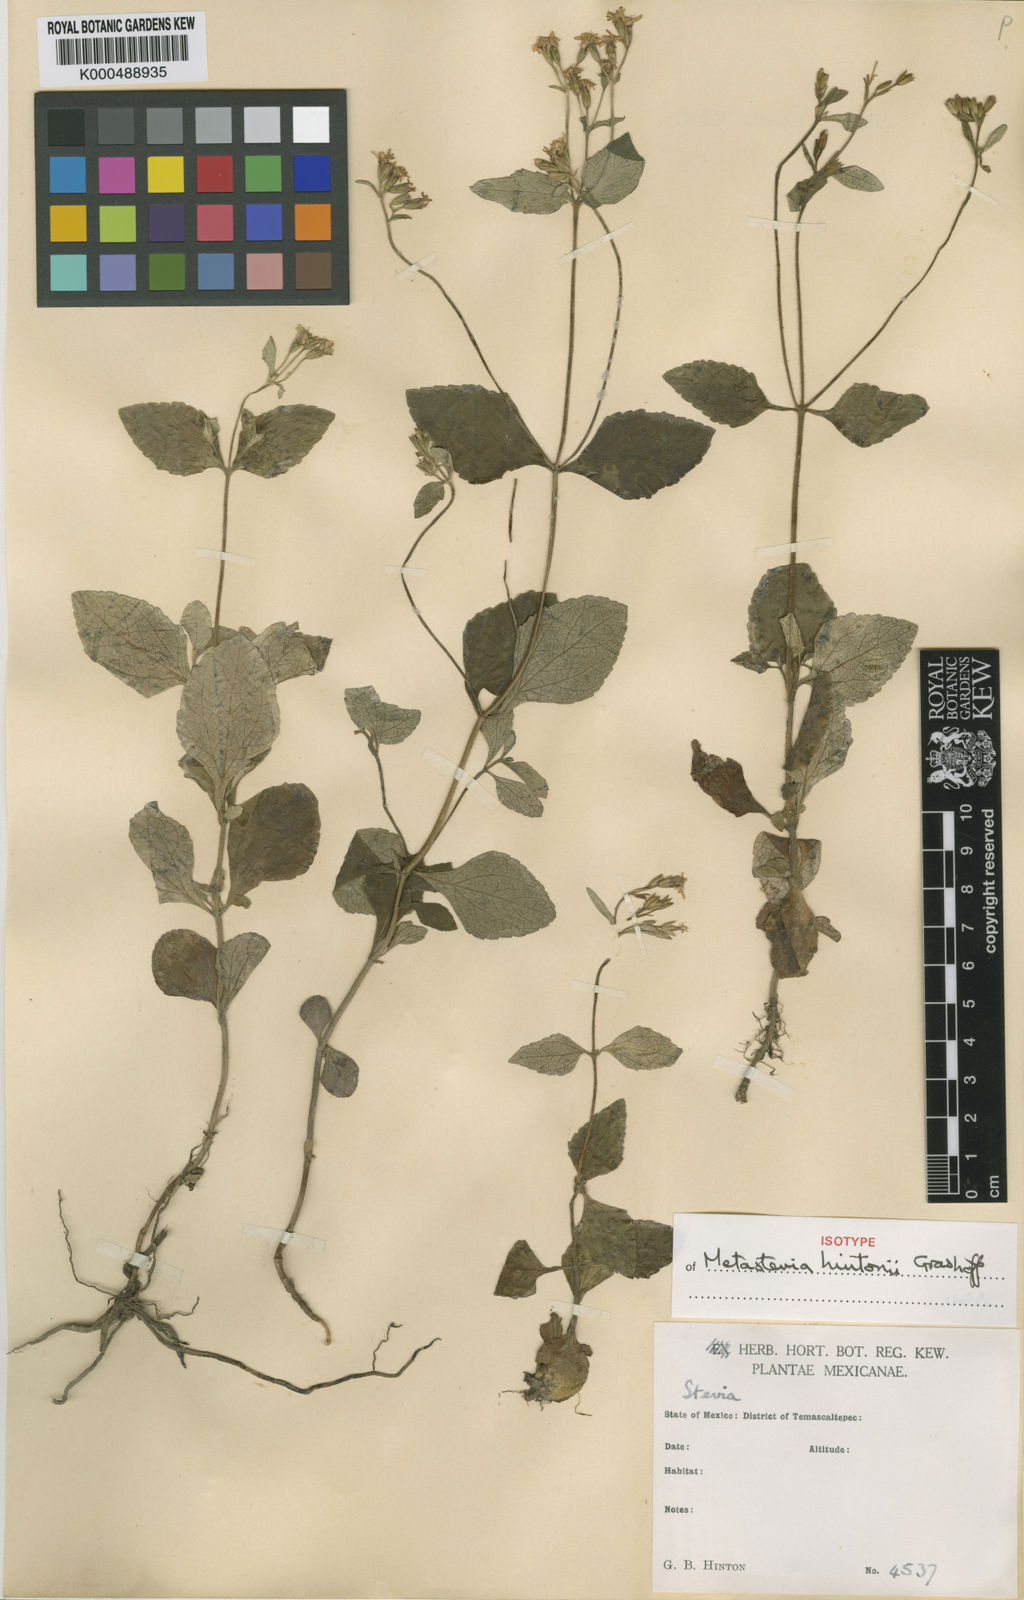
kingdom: Plantae
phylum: Tracheophyta
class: Magnoliopsida
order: Asterales
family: Asteraceae
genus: Stevia
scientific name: Stevia hintonii
